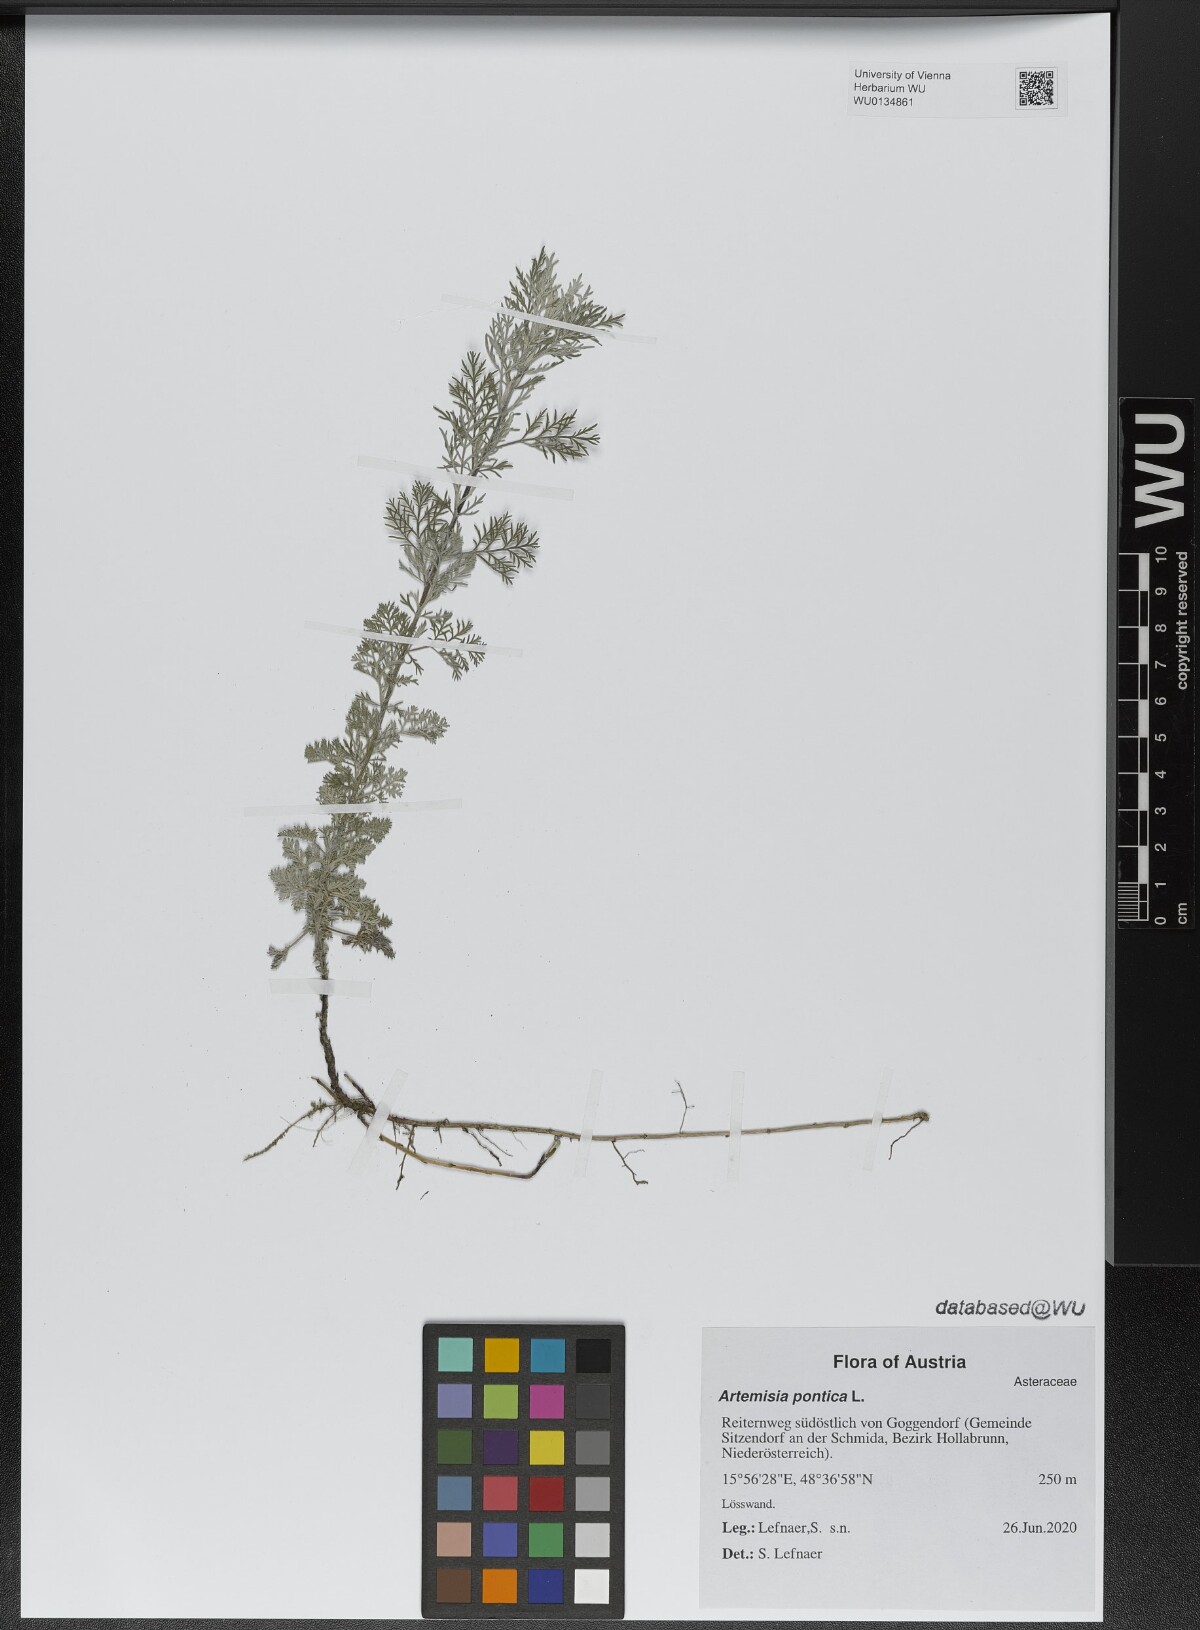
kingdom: Plantae
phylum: Tracheophyta
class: Magnoliopsida
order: Asterales
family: Asteraceae
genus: Artemisia
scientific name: Artemisia pontica
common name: Roman wormwood
